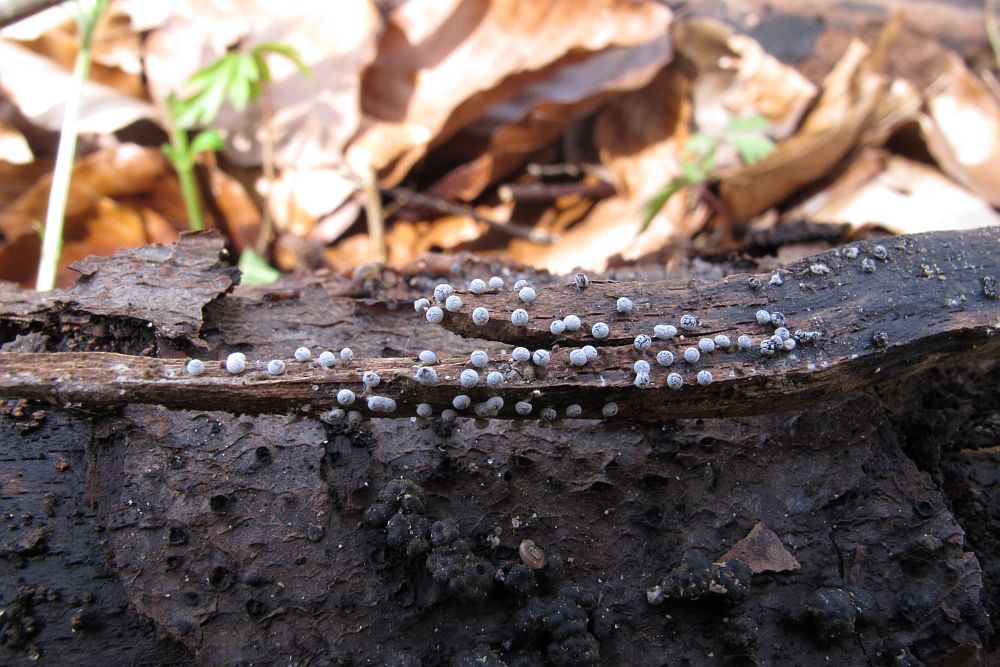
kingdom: Protozoa
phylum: Mycetozoa
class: Myxomycetes
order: Physarales
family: Didymiaceae
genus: Didymium
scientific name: Didymium squamulosum
